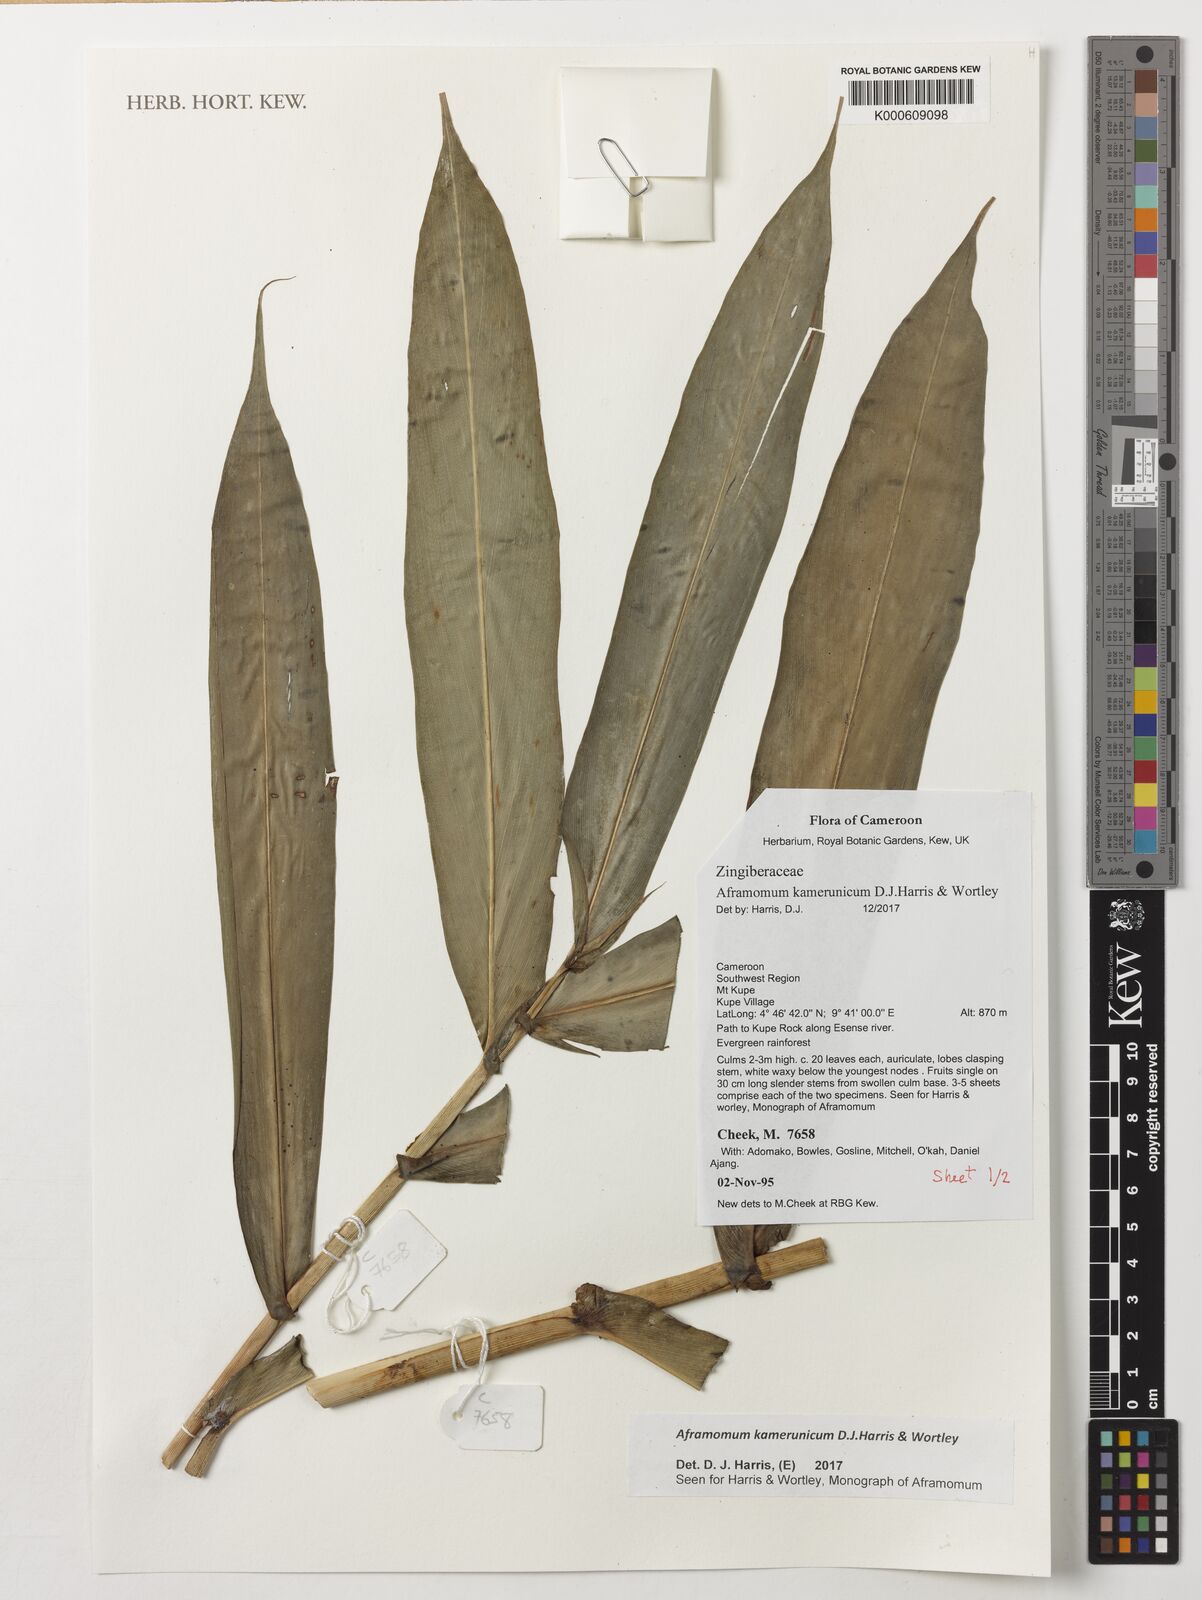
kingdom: Plantae
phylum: Tracheophyta
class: Liliopsida
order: Zingiberales
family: Zingiberaceae
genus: Aframomum
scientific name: Aframomum kamerunicum
